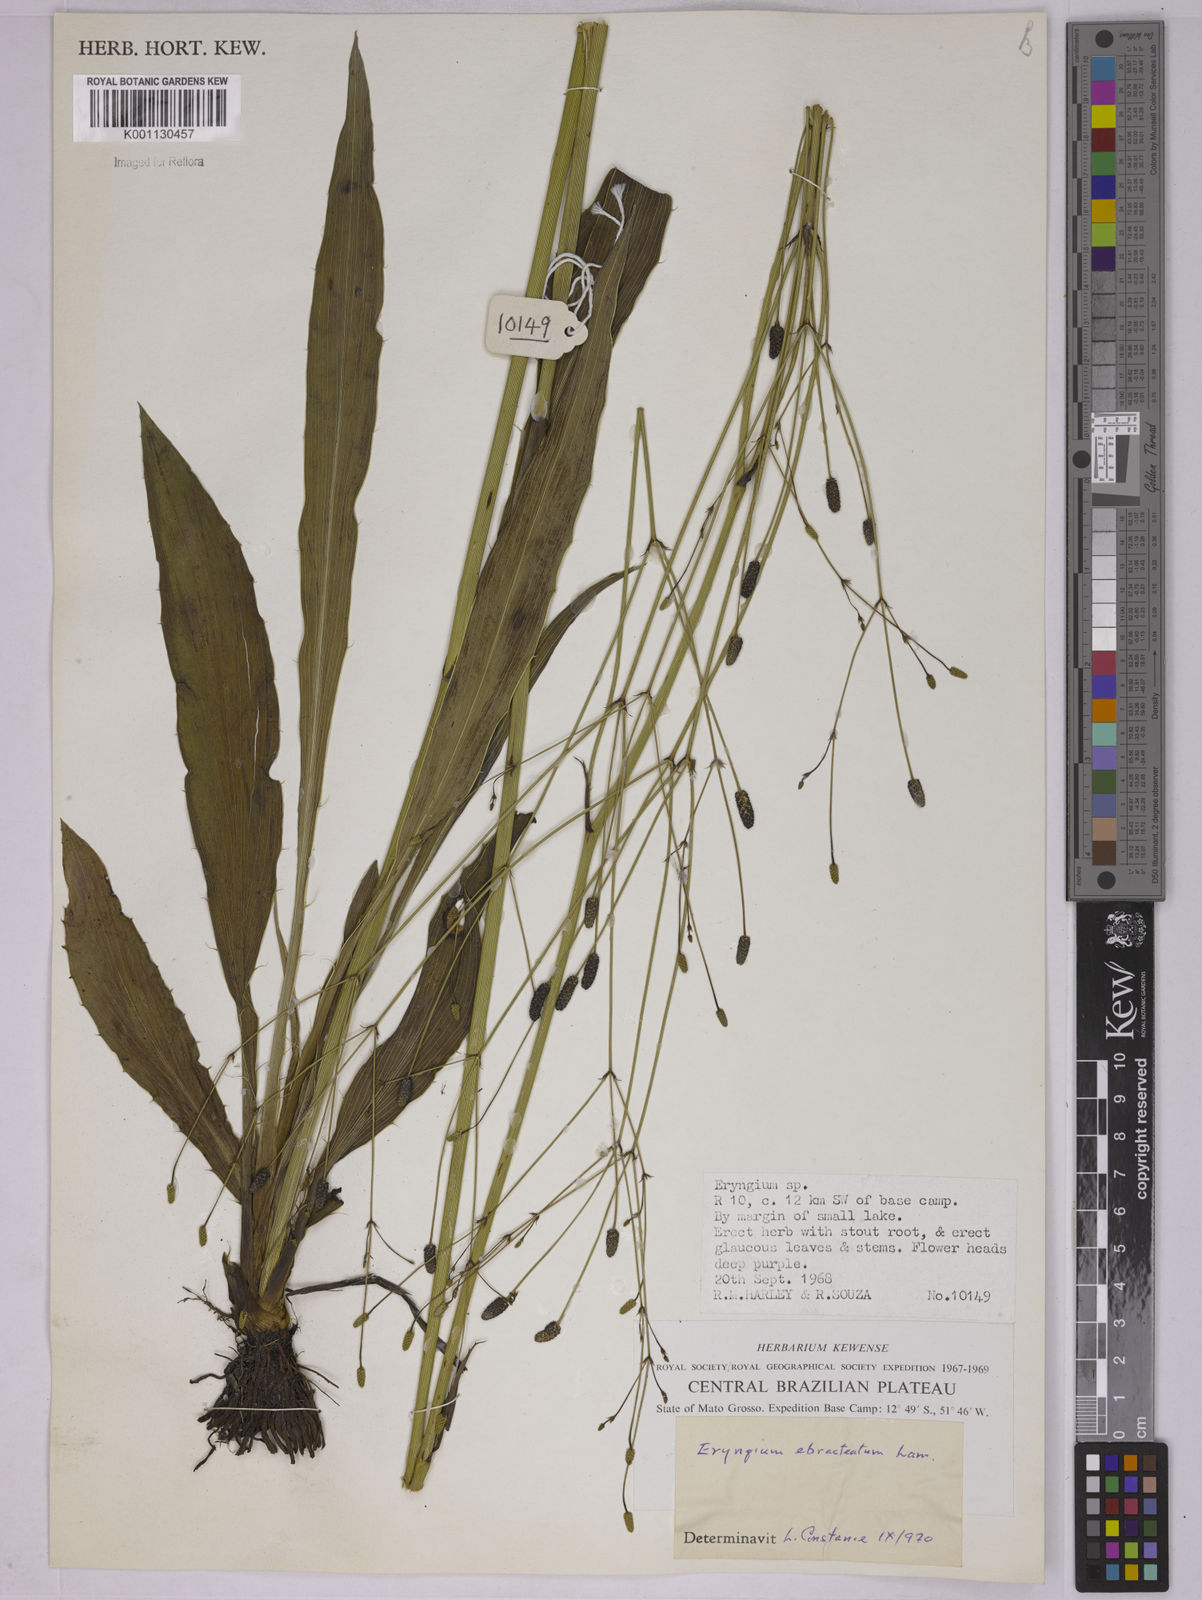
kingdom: Plantae
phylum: Tracheophyta
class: Magnoliopsida
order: Apiales
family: Apiaceae
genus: Eryngium
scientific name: Eryngium ebracteatum
